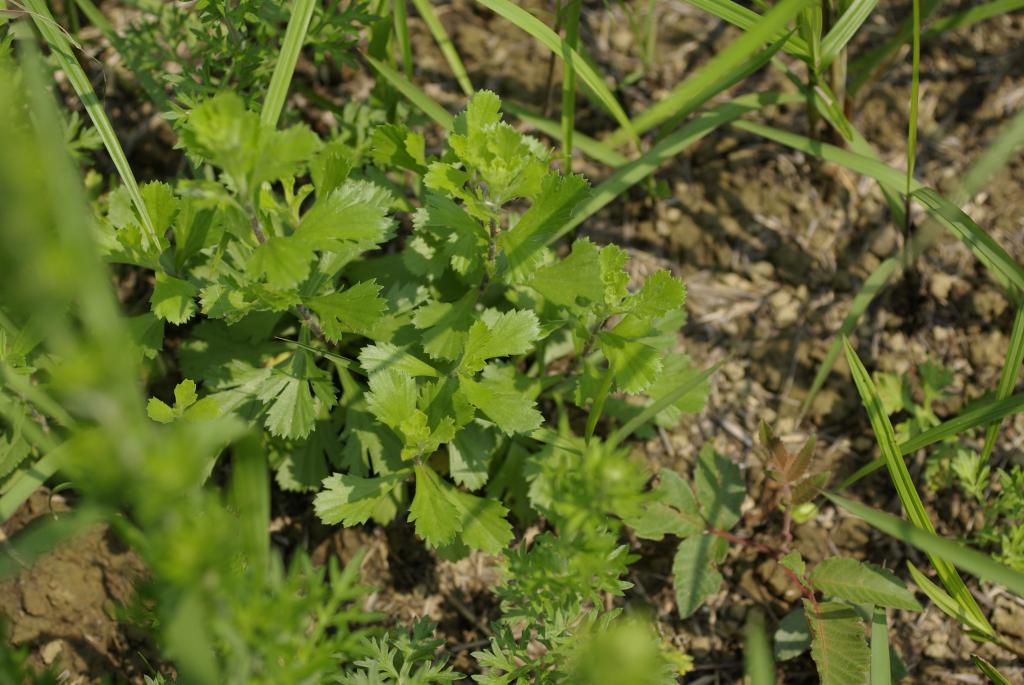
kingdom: Plantae
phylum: Tracheophyta
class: Magnoliopsida
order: Asterales
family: Asteraceae
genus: Artemisia
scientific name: Artemisia japonica
